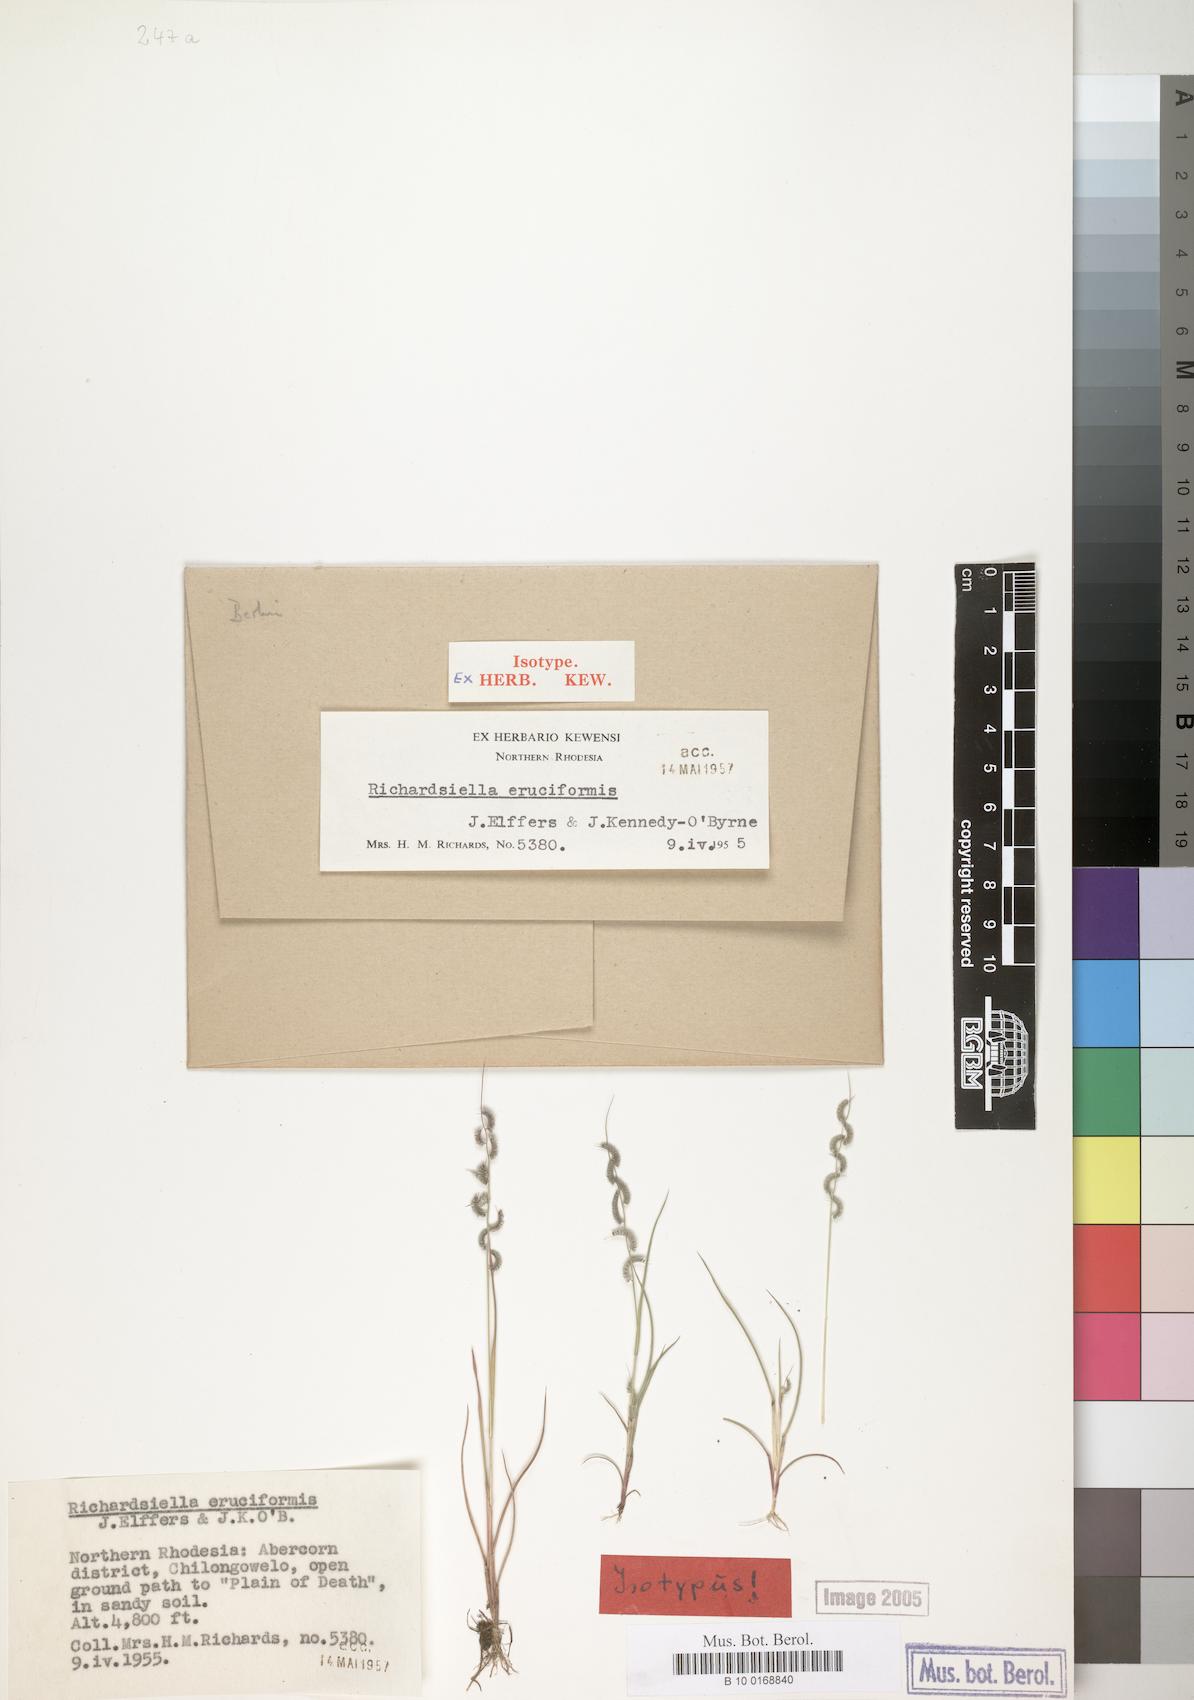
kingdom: Plantae
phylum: Tracheophyta
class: Liliopsida
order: Poales
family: Poaceae
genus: Richardsiella
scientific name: Richardsiella eruciformis
